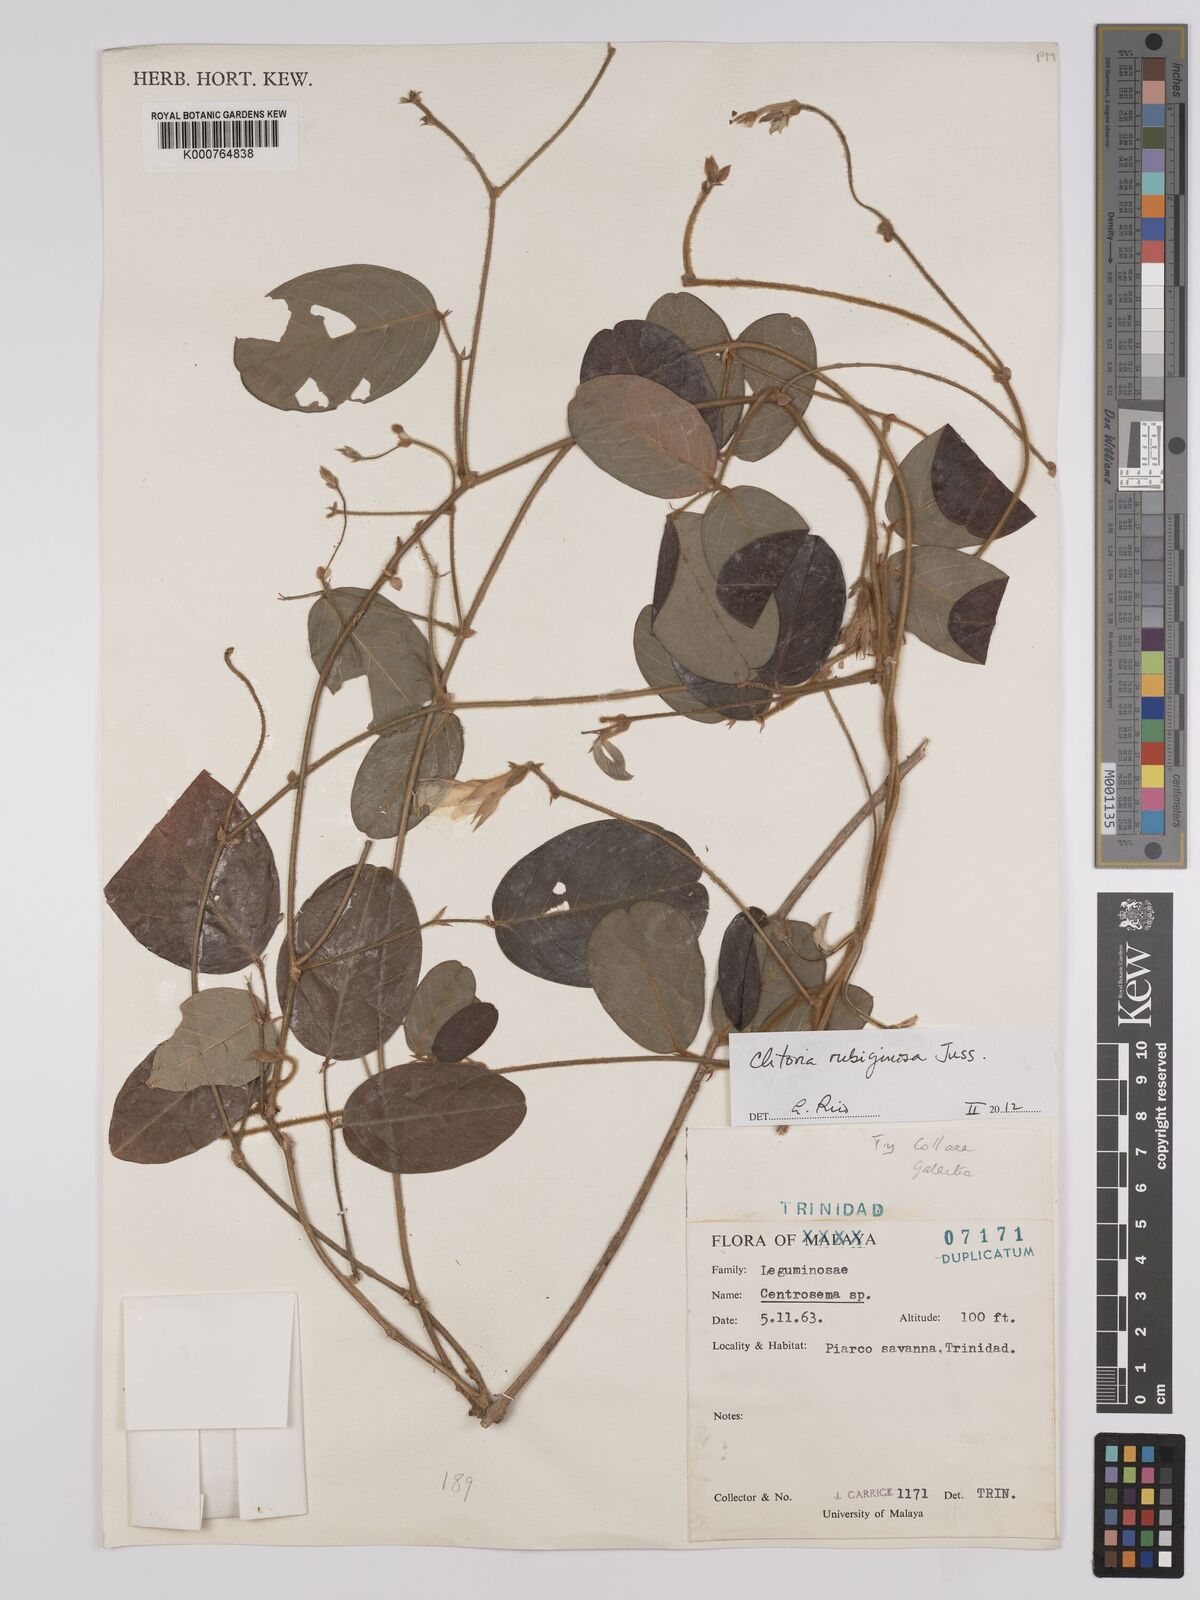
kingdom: Plantae
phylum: Tracheophyta
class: Magnoliopsida
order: Fabales
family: Fabaceae
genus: Clitoria
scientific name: Clitoria
